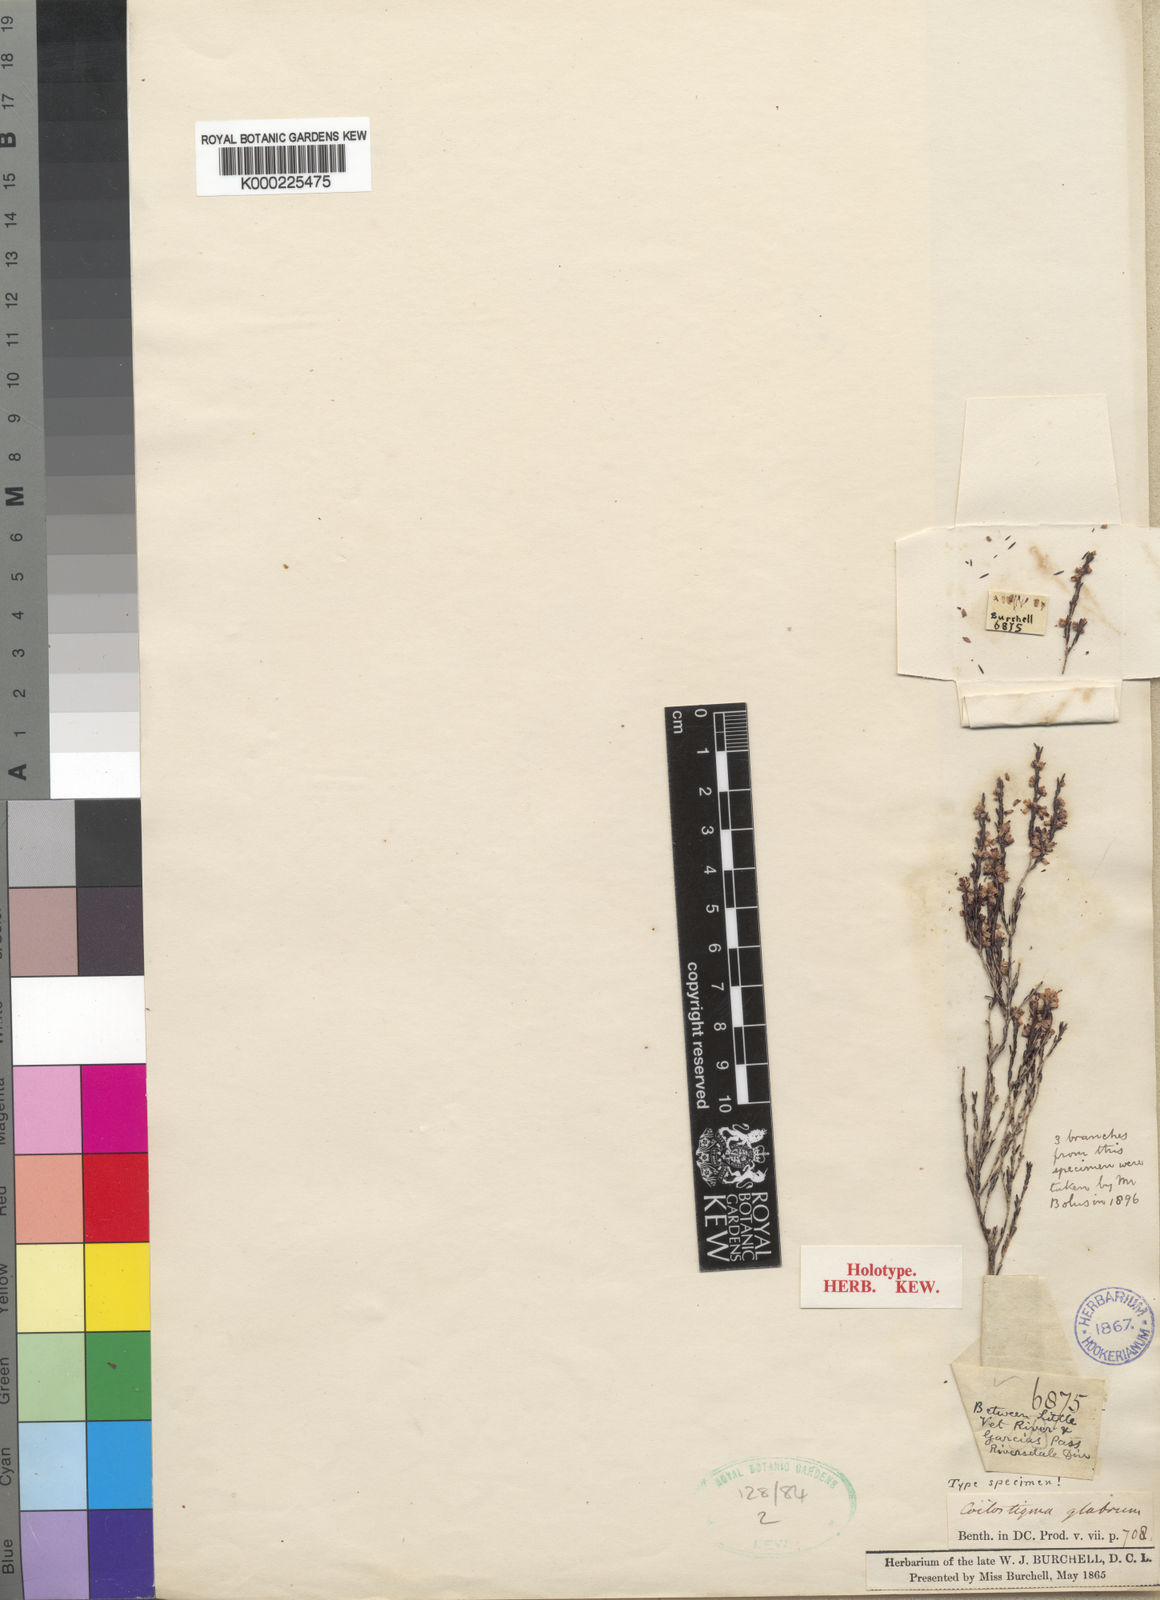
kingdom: Plantae
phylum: Tracheophyta
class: Magnoliopsida
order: Ericales
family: Ericaceae
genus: Erica
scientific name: Erica burchelliana
